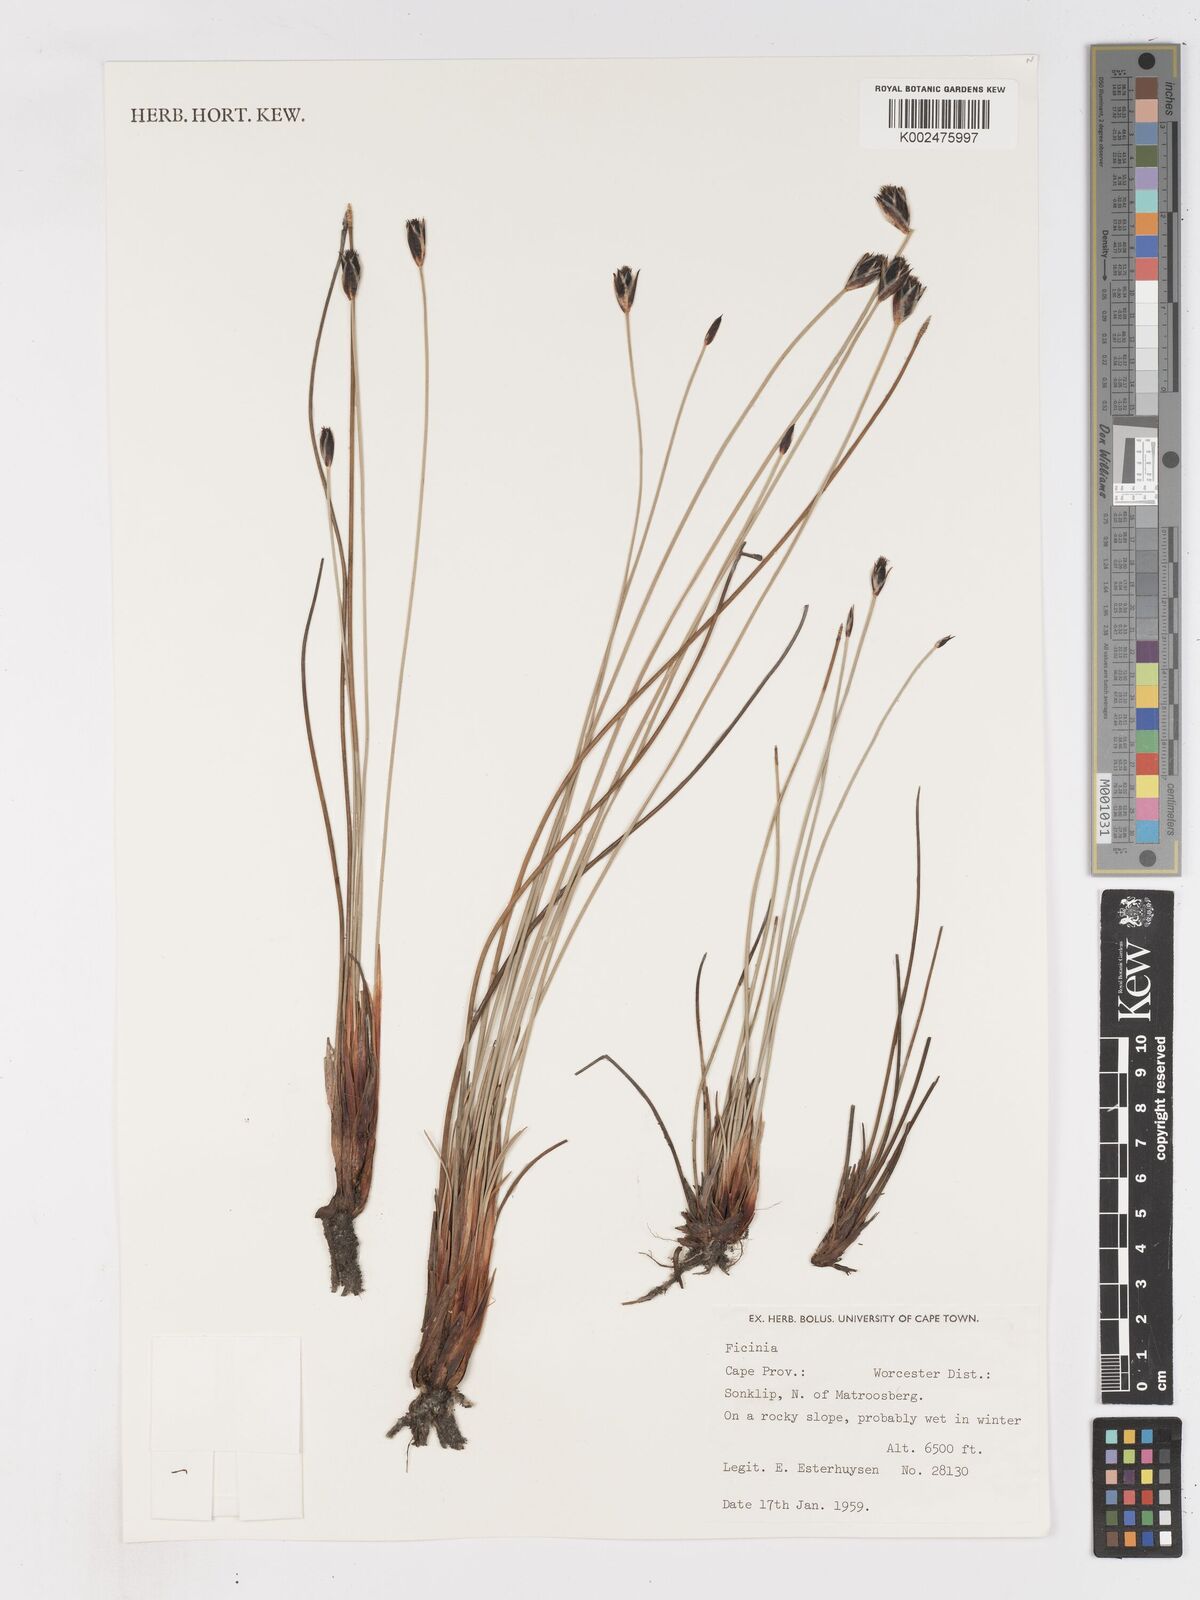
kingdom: Plantae
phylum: Tracheophyta
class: Liliopsida
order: Poales
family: Cyperaceae
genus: Ficinia
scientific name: Ficinia gydomontana
